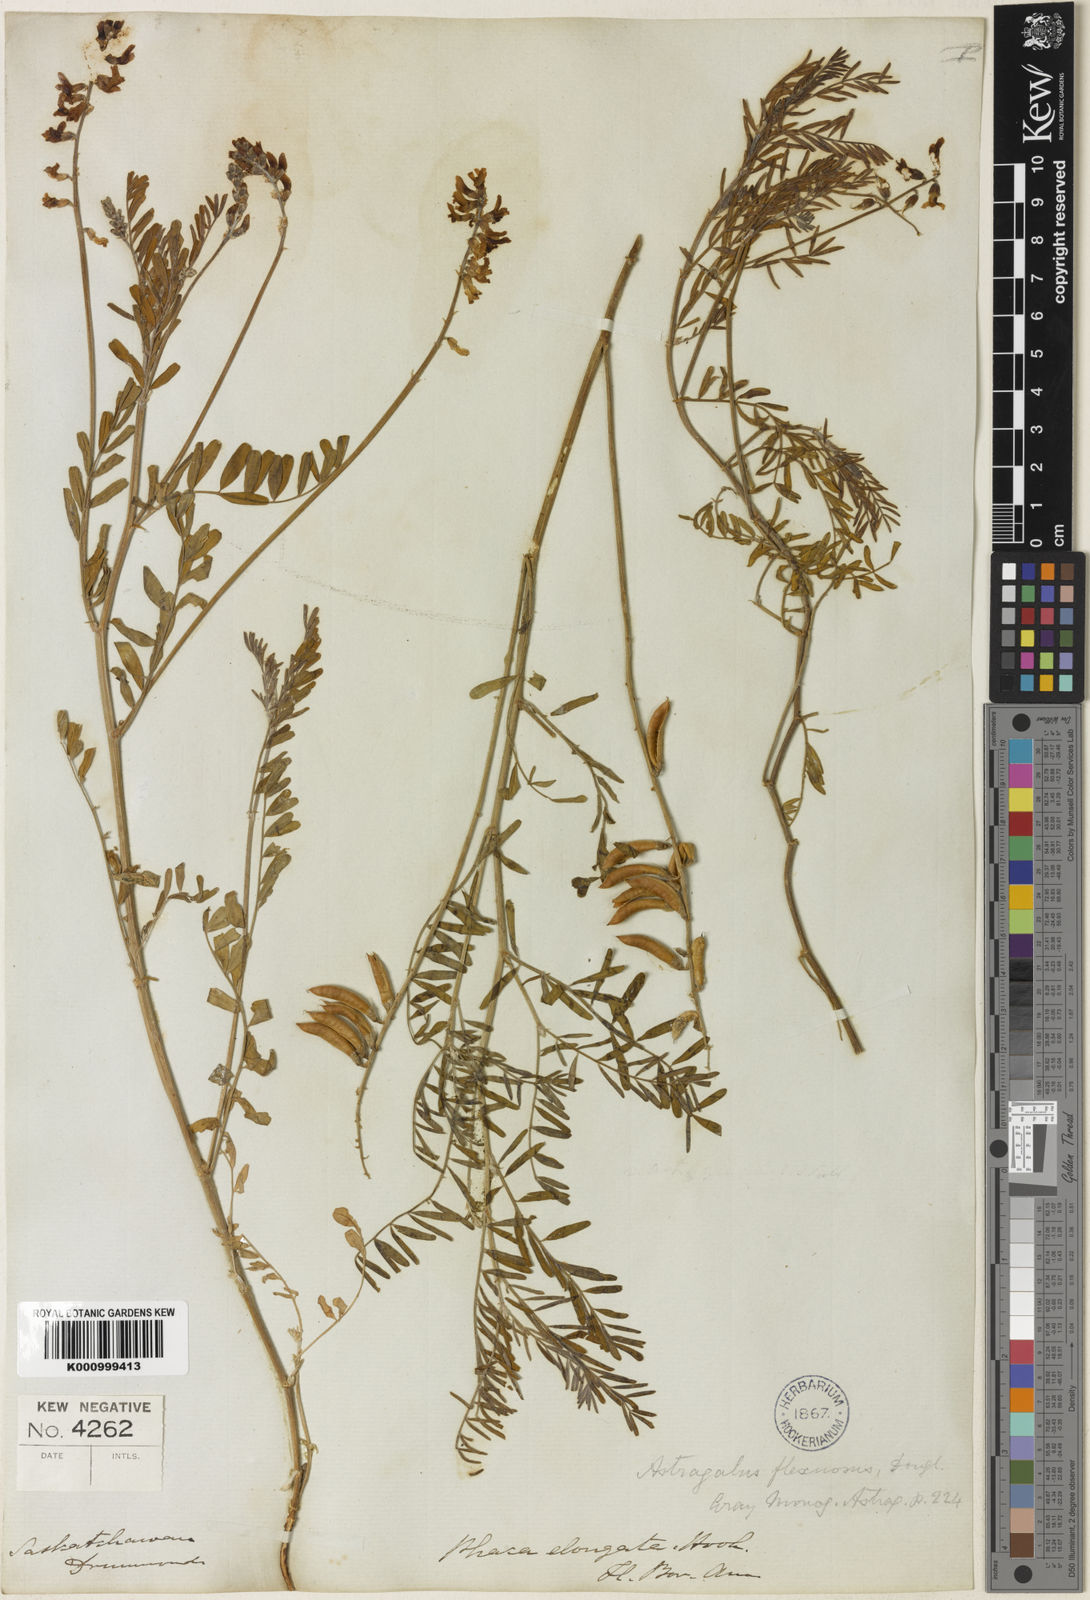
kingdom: Plantae
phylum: Tracheophyta
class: Magnoliopsida
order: Fabales
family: Fabaceae
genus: Astragalus
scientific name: Astragalus flexuosus
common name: Pliant milk-vetch
